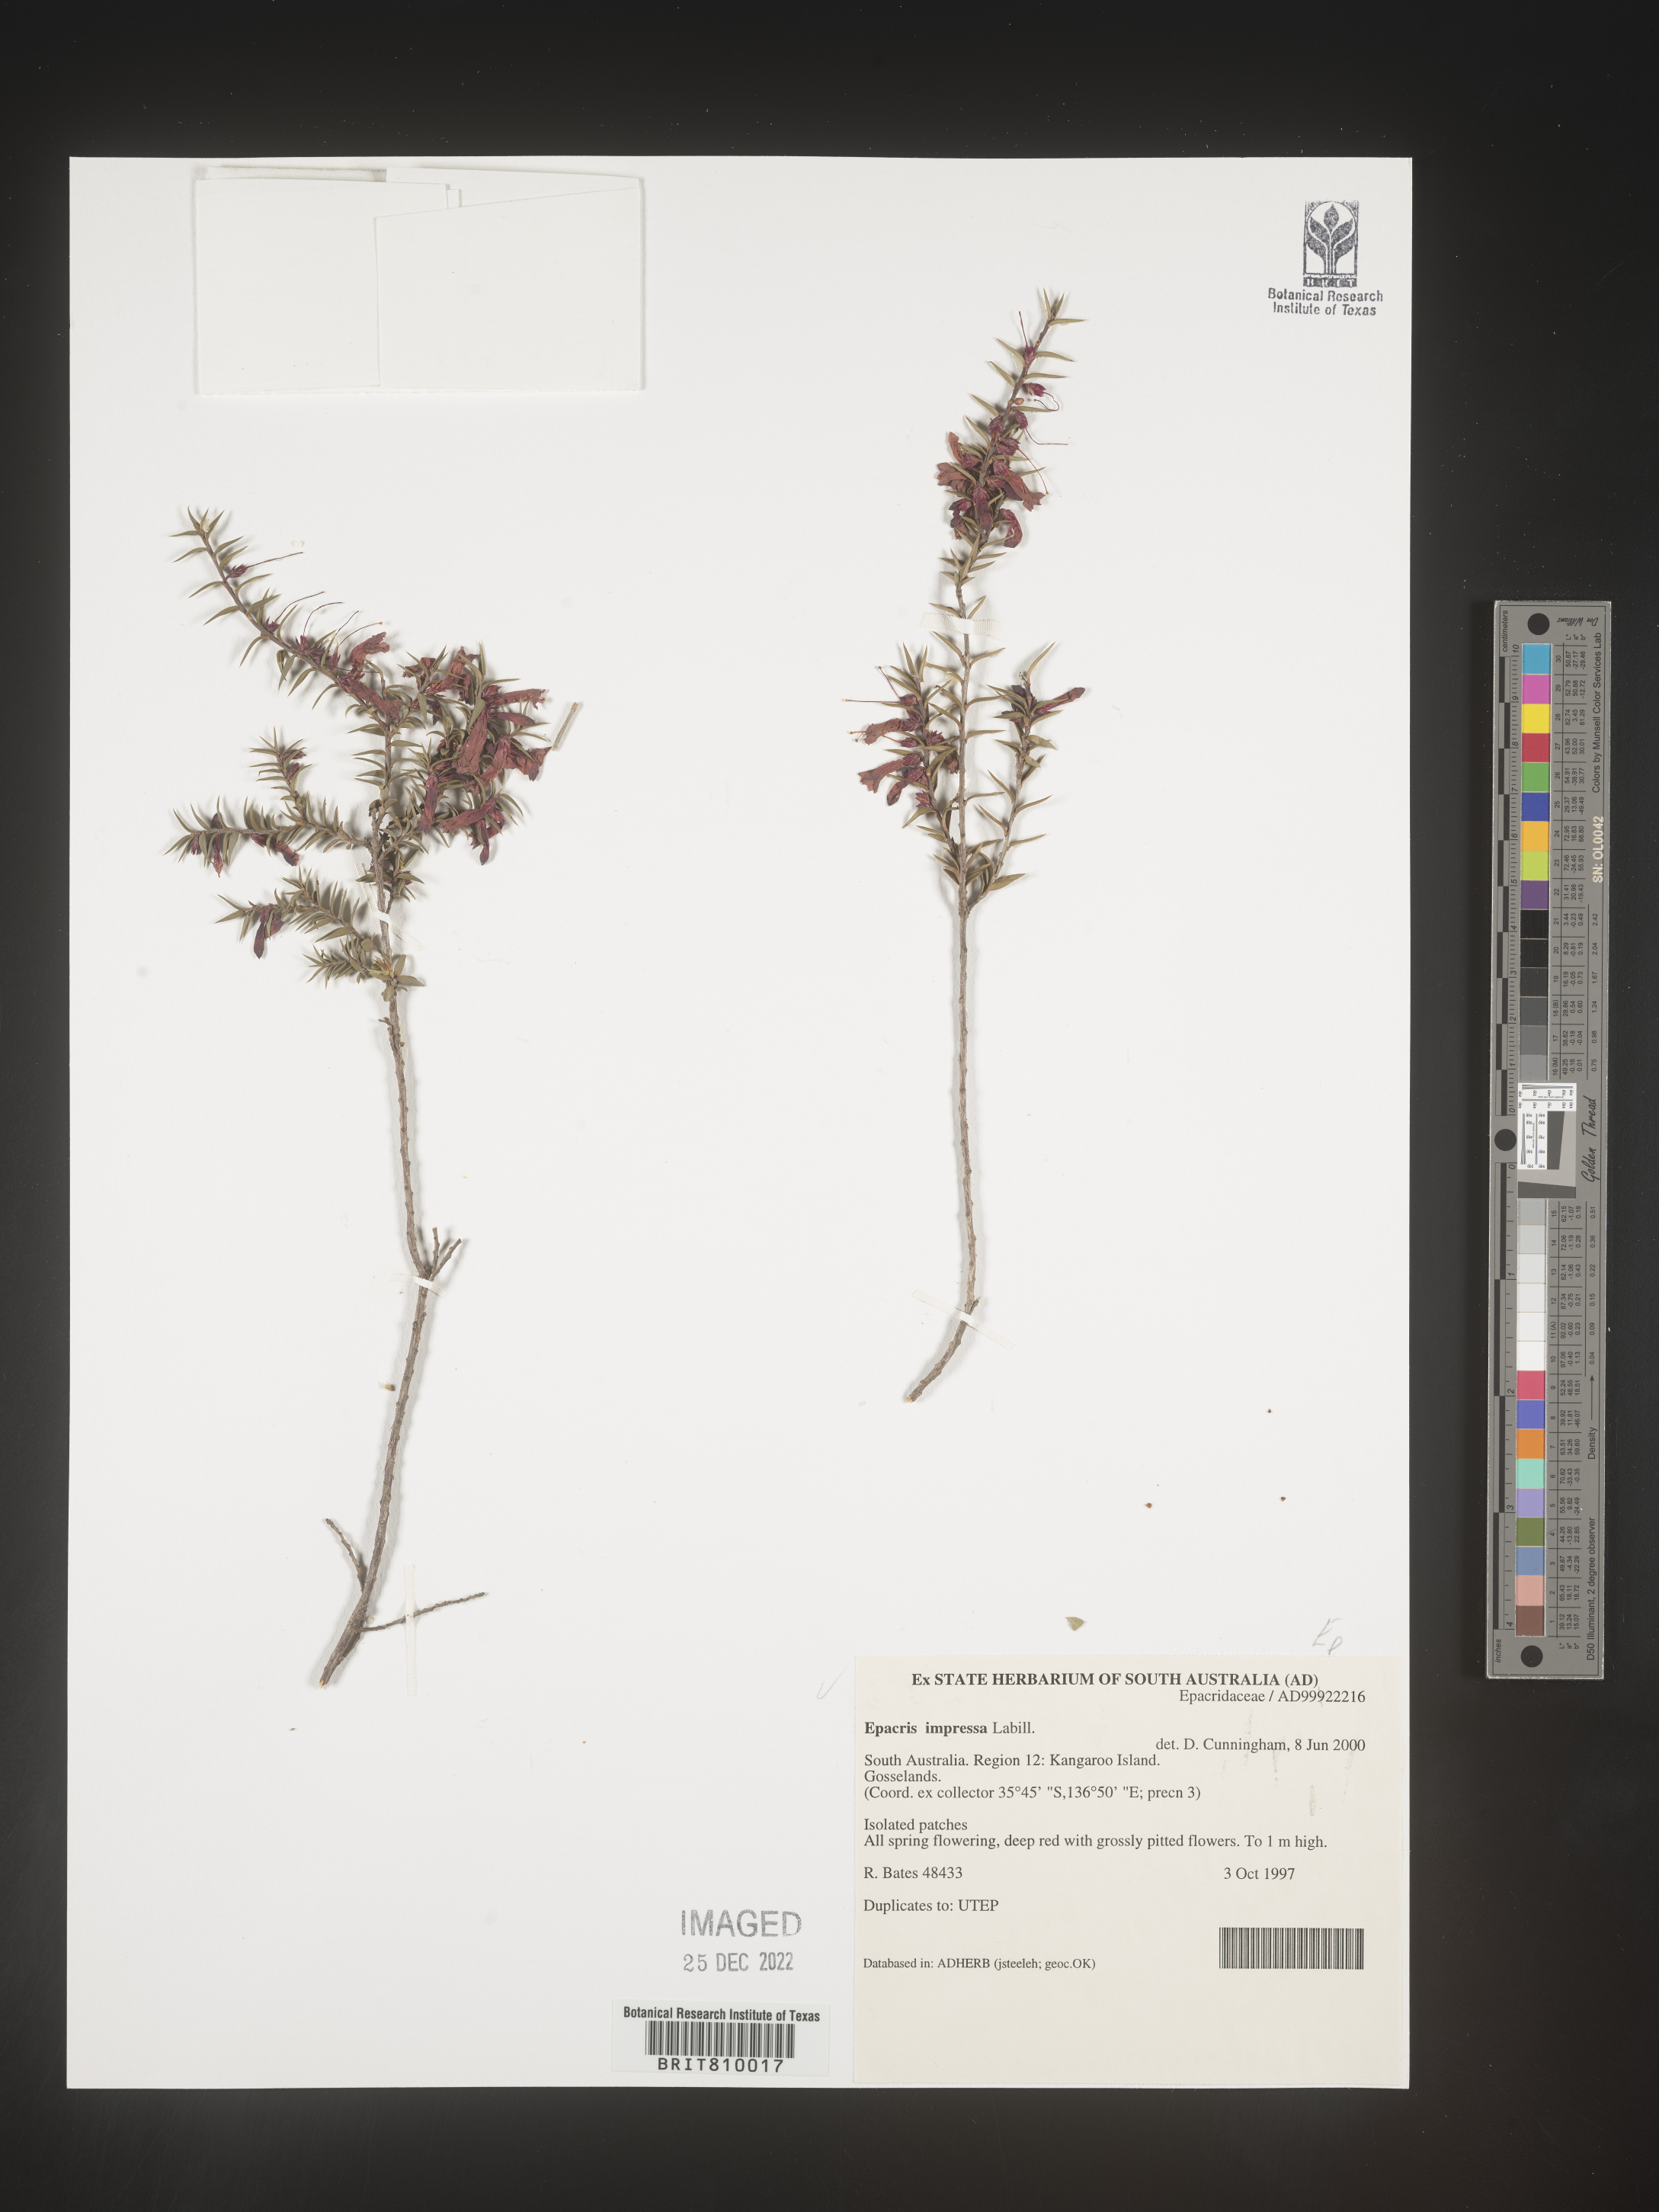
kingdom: Plantae
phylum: Tracheophyta
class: Magnoliopsida
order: Ericales
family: Ericaceae
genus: Epacris
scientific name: Epacris
